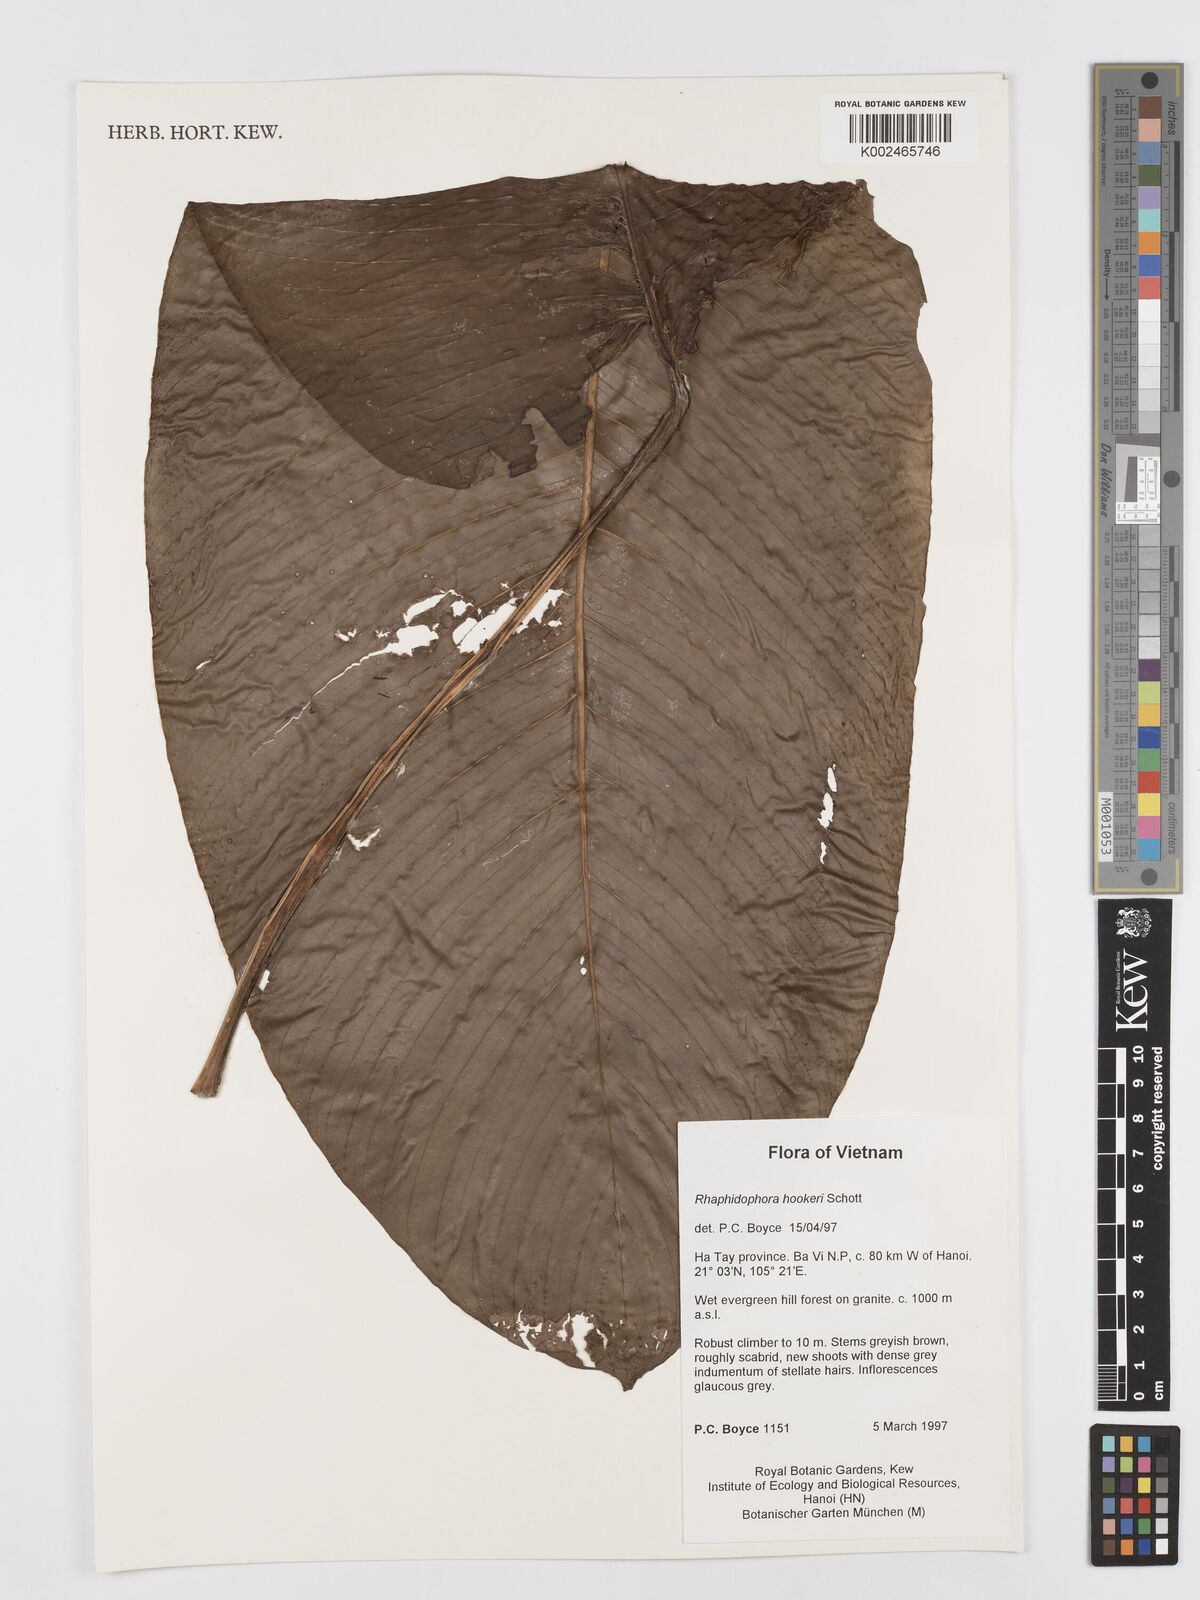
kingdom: Plantae
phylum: Tracheophyta
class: Liliopsida
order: Alismatales
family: Araceae
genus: Rhaphidophora
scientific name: Rhaphidophora
